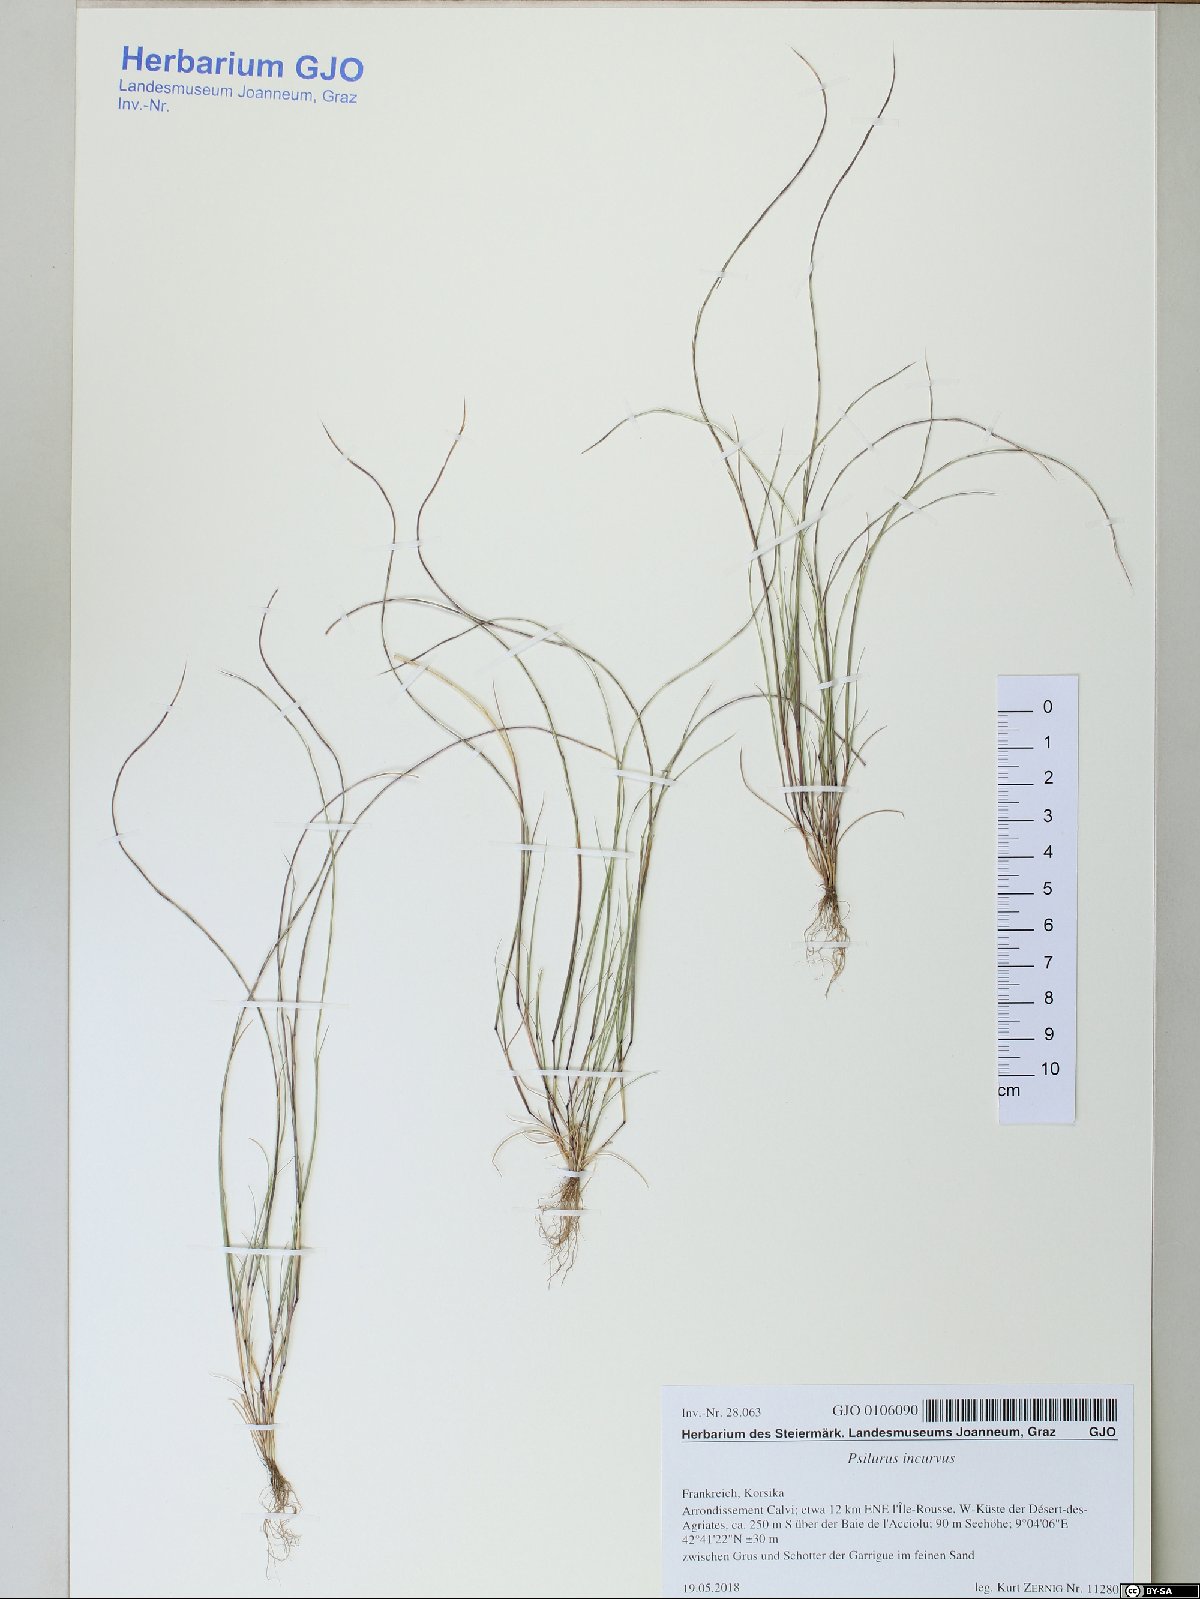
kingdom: Plantae
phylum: Tracheophyta
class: Liliopsida
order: Poales
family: Poaceae
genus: Festuca
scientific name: Festuca incurva
